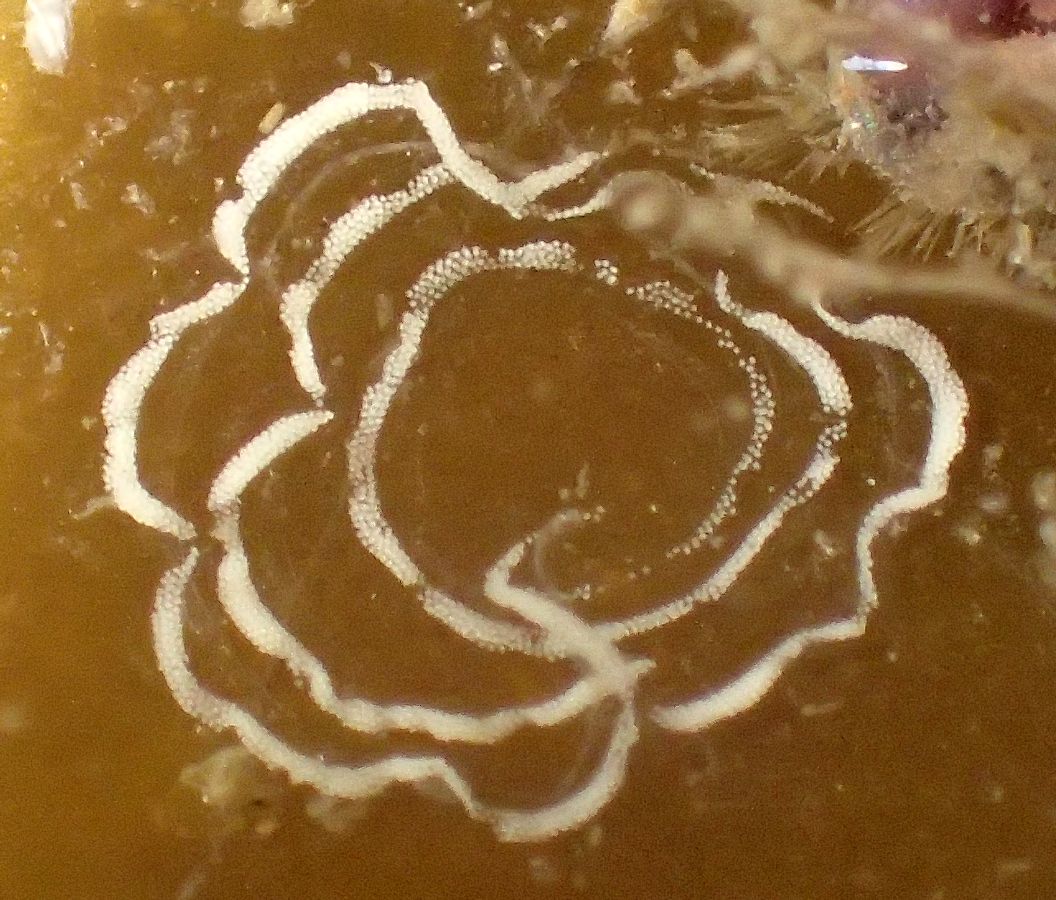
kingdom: Animalia
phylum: Mollusca
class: Gastropoda
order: Nudibranchia
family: Coryphellidae
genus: Coryphella
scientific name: Coryphella verrucosa
